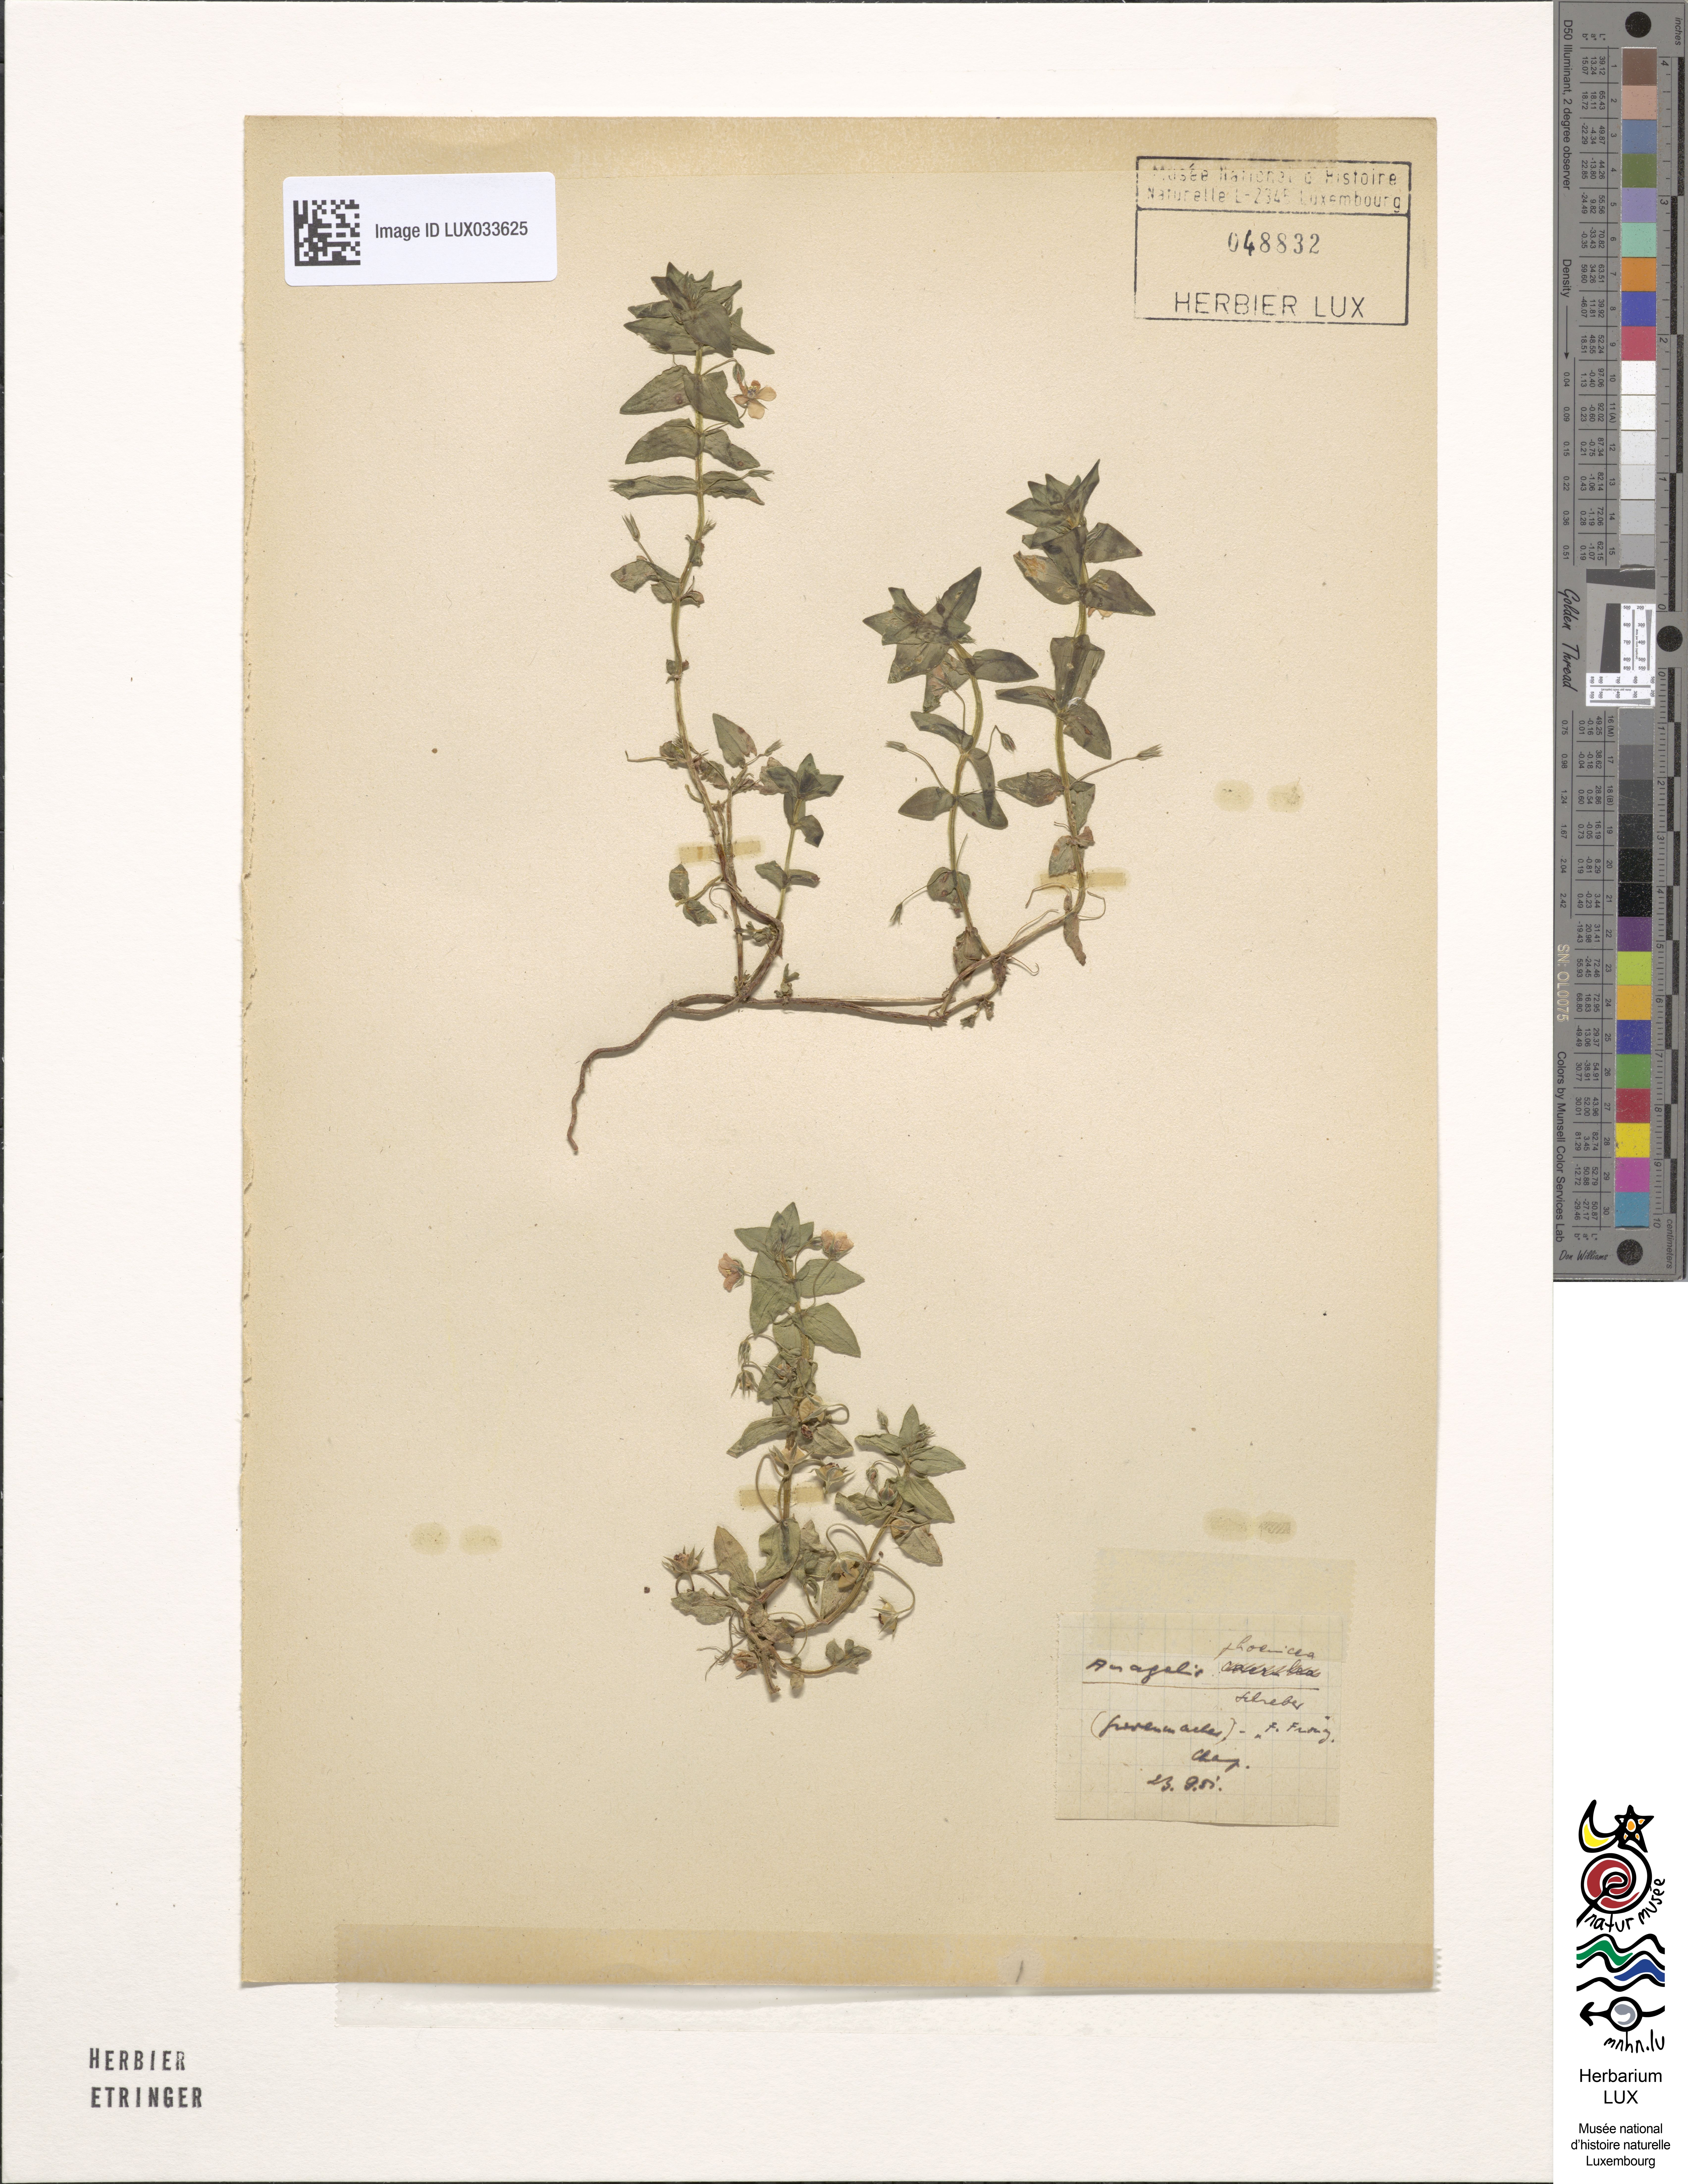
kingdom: Plantae
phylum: Tracheophyta
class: Magnoliopsida
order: Ericales
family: Primulaceae
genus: Lysimachia
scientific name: Lysimachia arvensis
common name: Scarlet pimpernel
